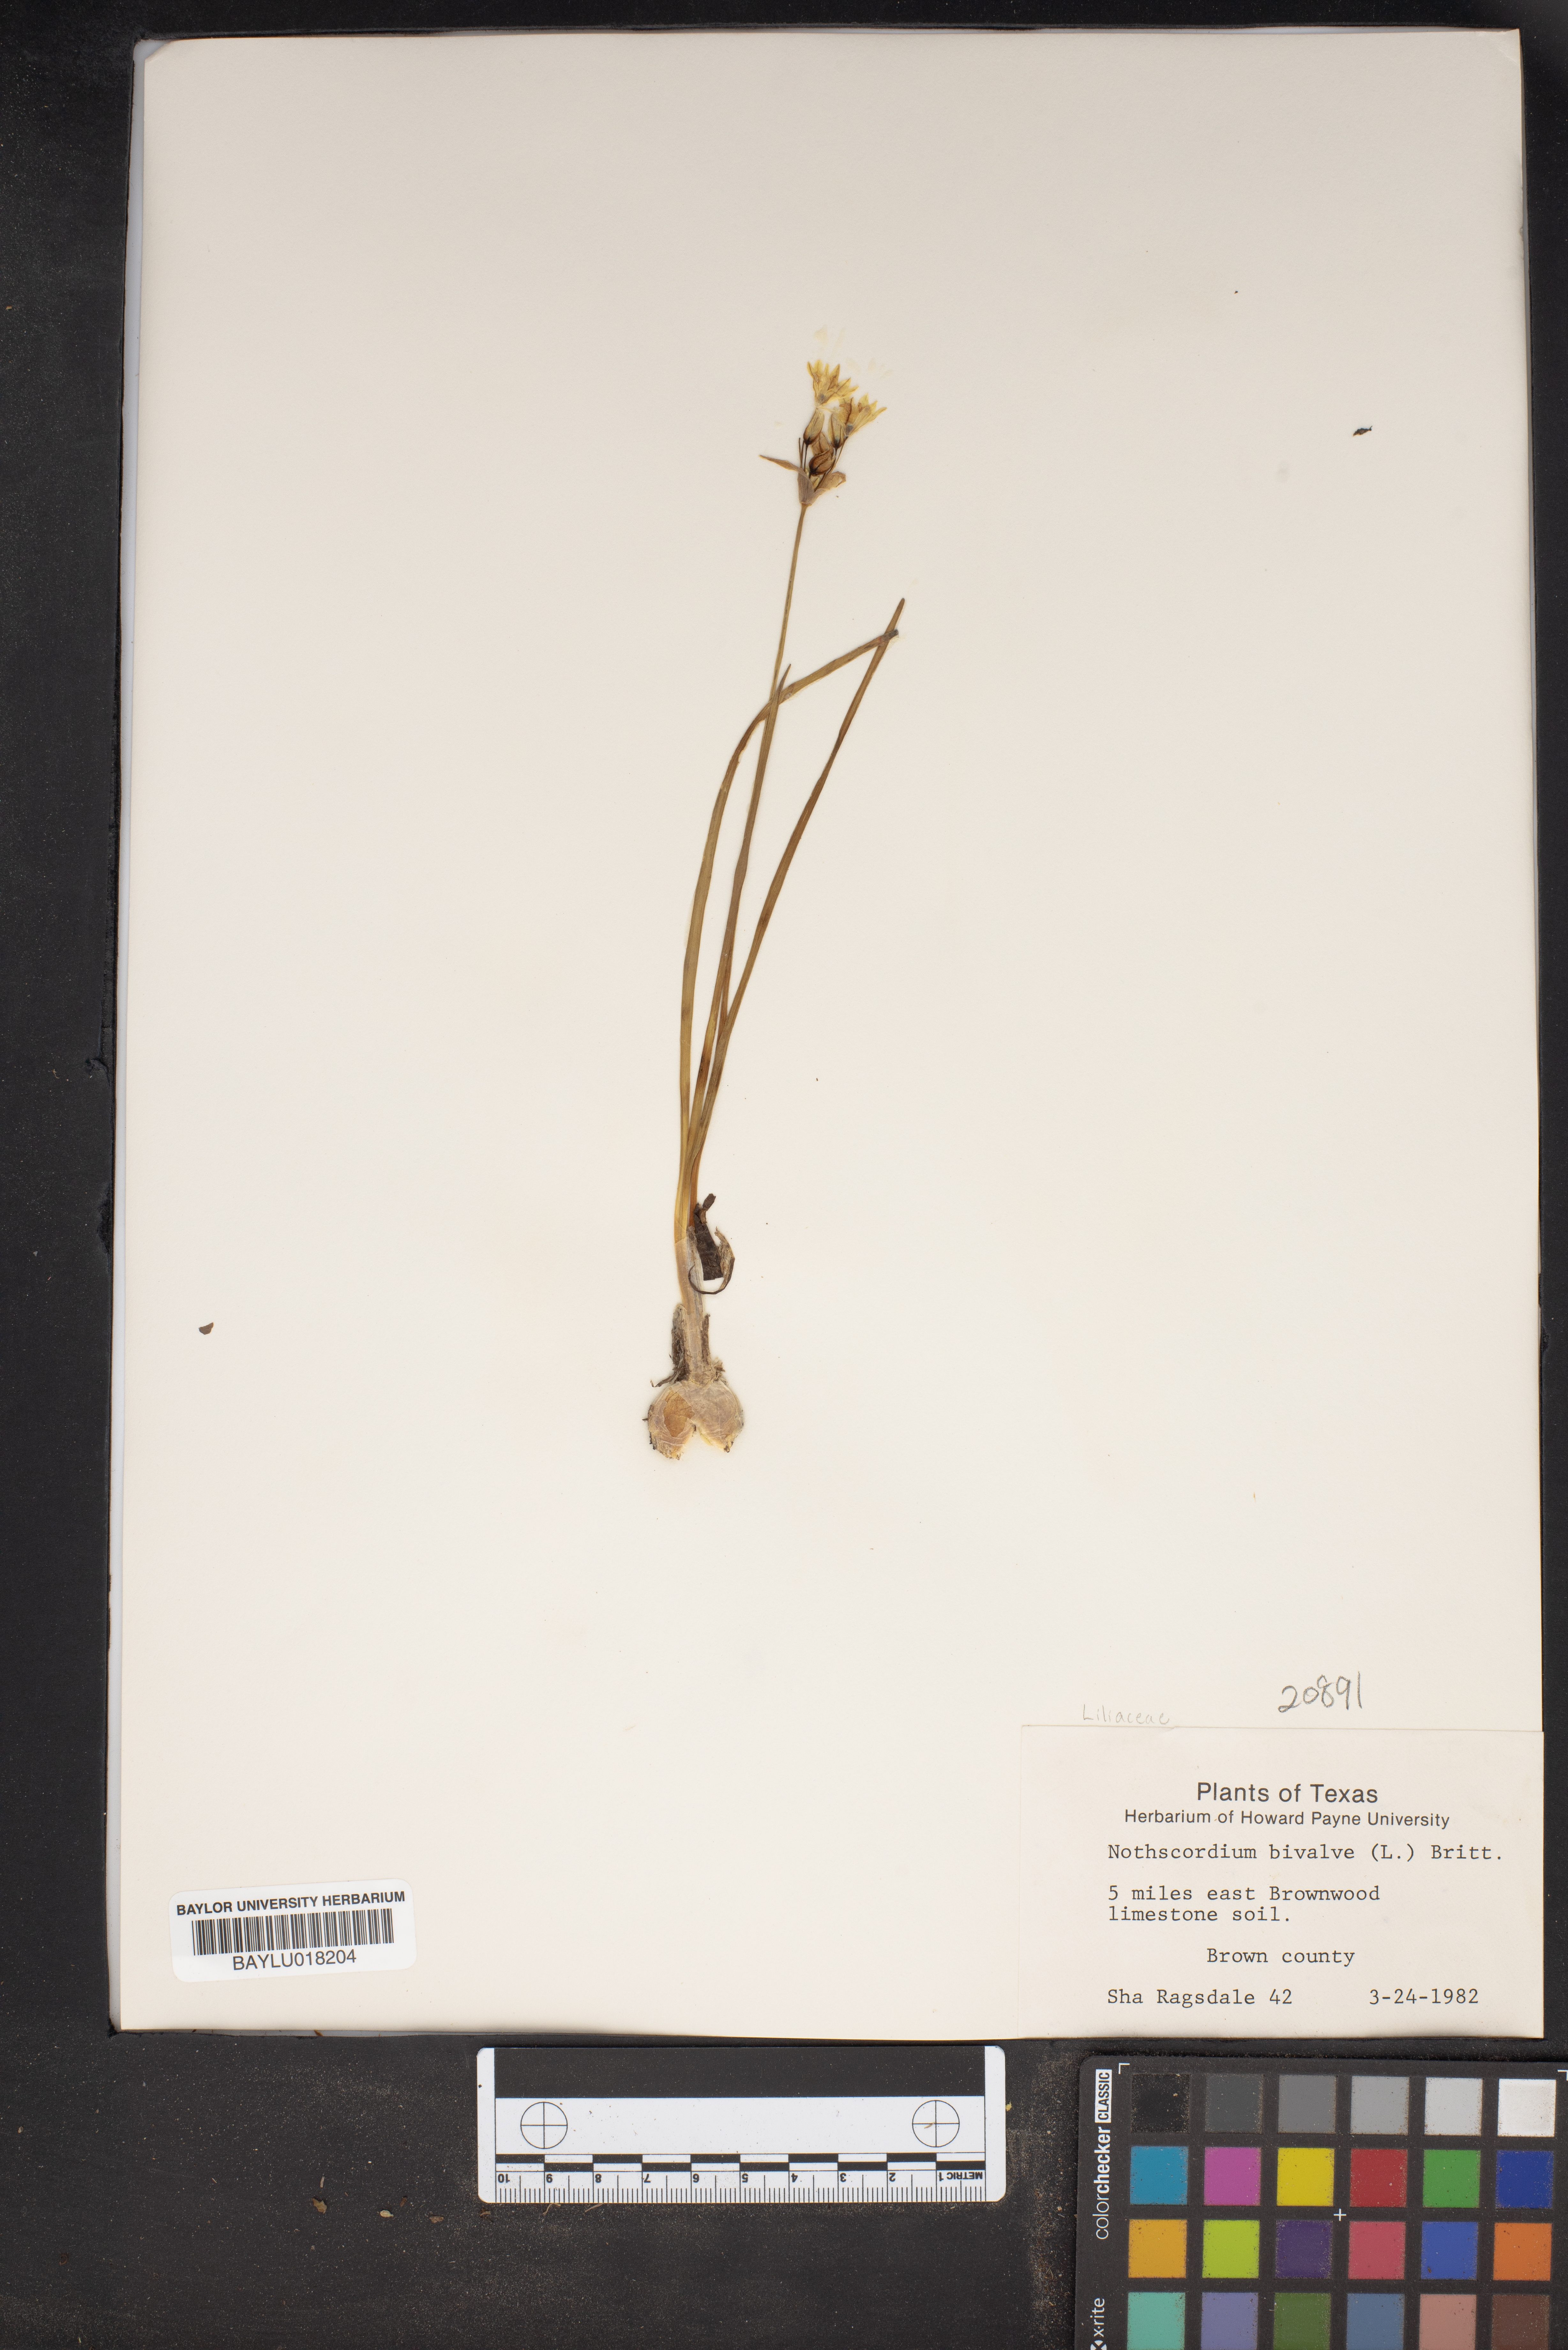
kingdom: Plantae
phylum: Tracheophyta
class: Liliopsida
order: Asparagales
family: Amaryllidaceae
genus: Nothoscordum
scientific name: Nothoscordum bivalve
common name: Crow-poison
